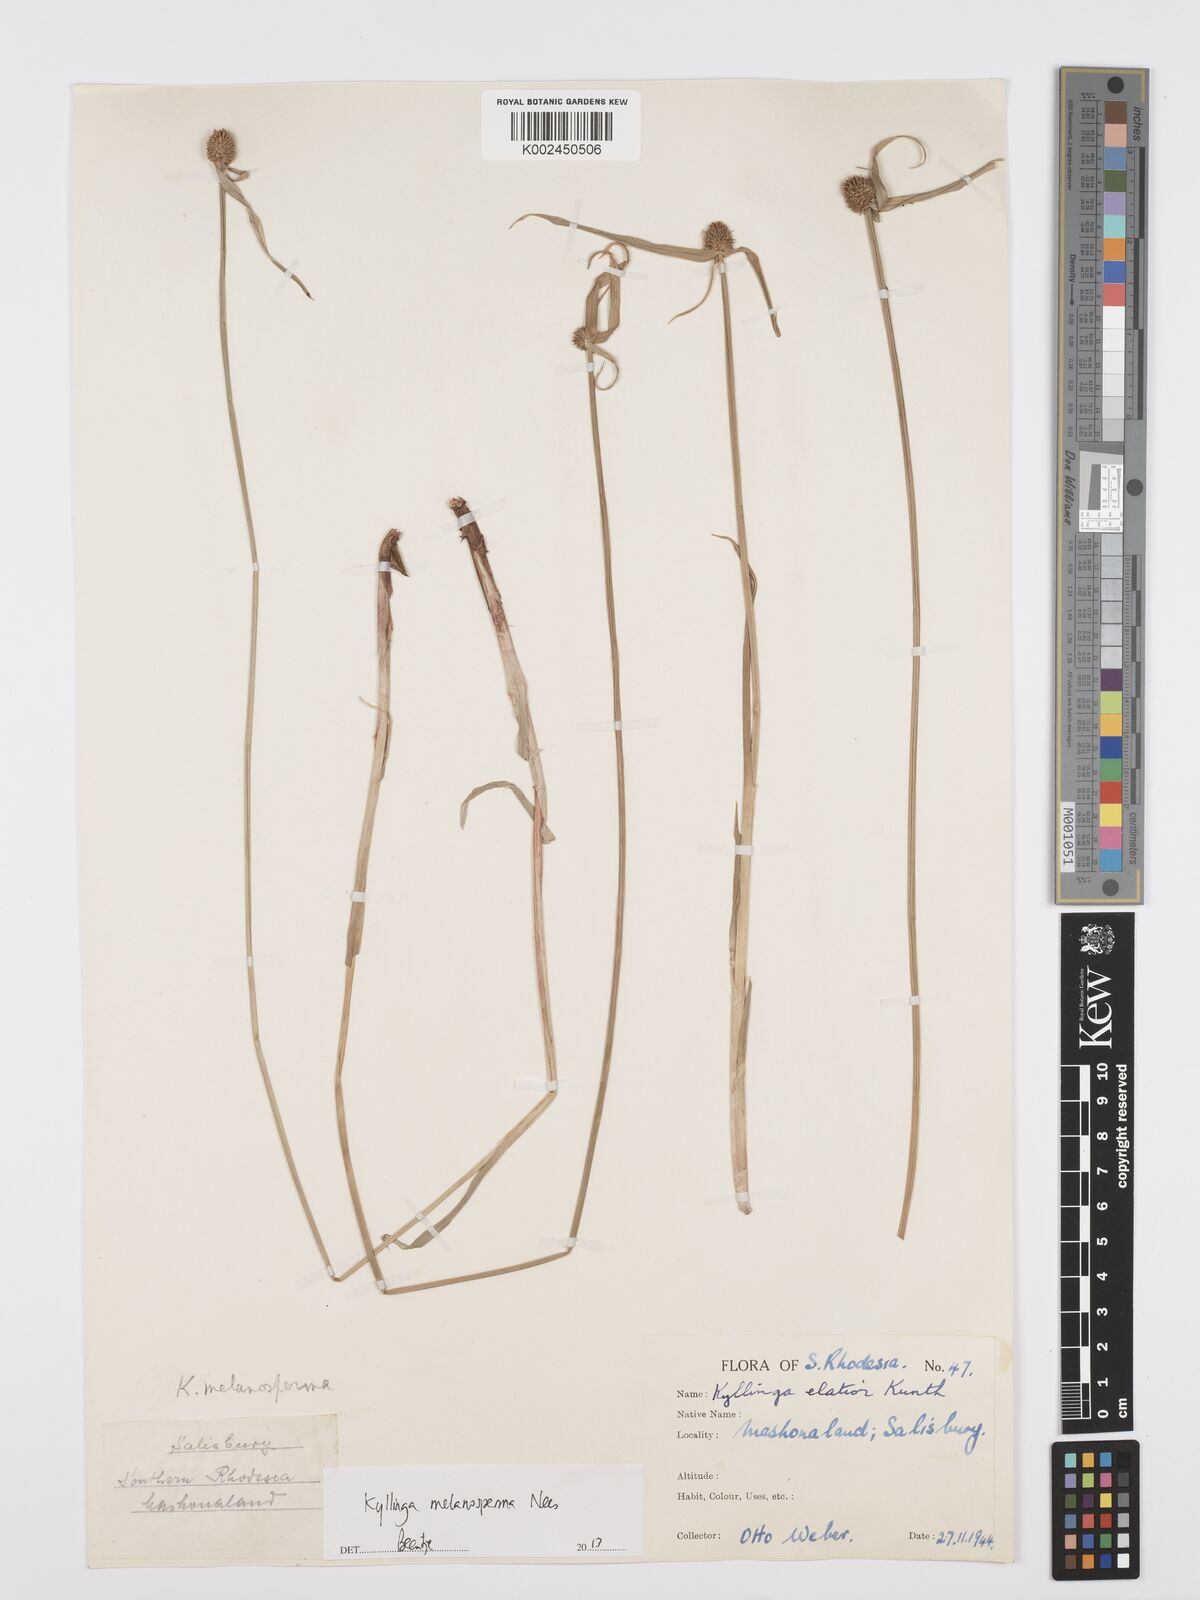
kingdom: Plantae
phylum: Tracheophyta
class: Liliopsida
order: Poales
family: Cyperaceae
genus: Cyperus
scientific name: Cyperus melanospermus
